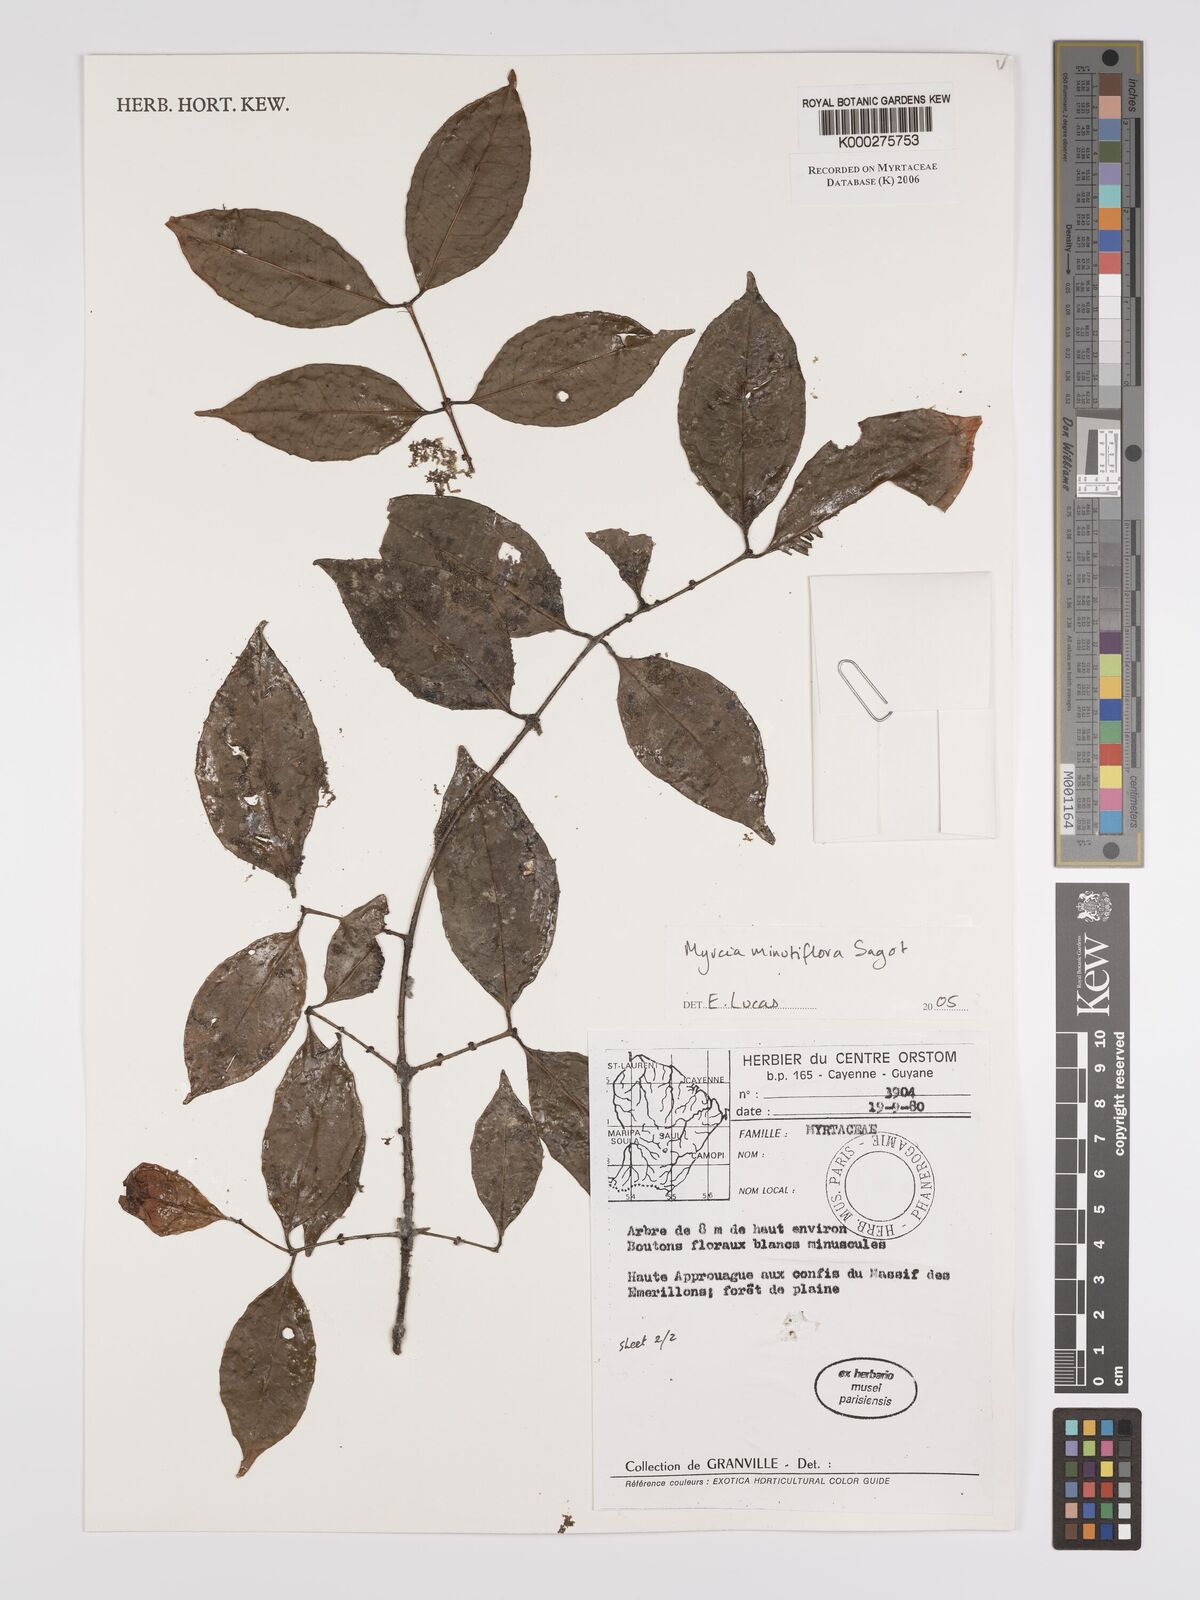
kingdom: Plantae
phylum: Tracheophyta
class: Magnoliopsida
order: Myrtales
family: Myrtaceae
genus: Myrcia
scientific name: Myrcia minutiflora
